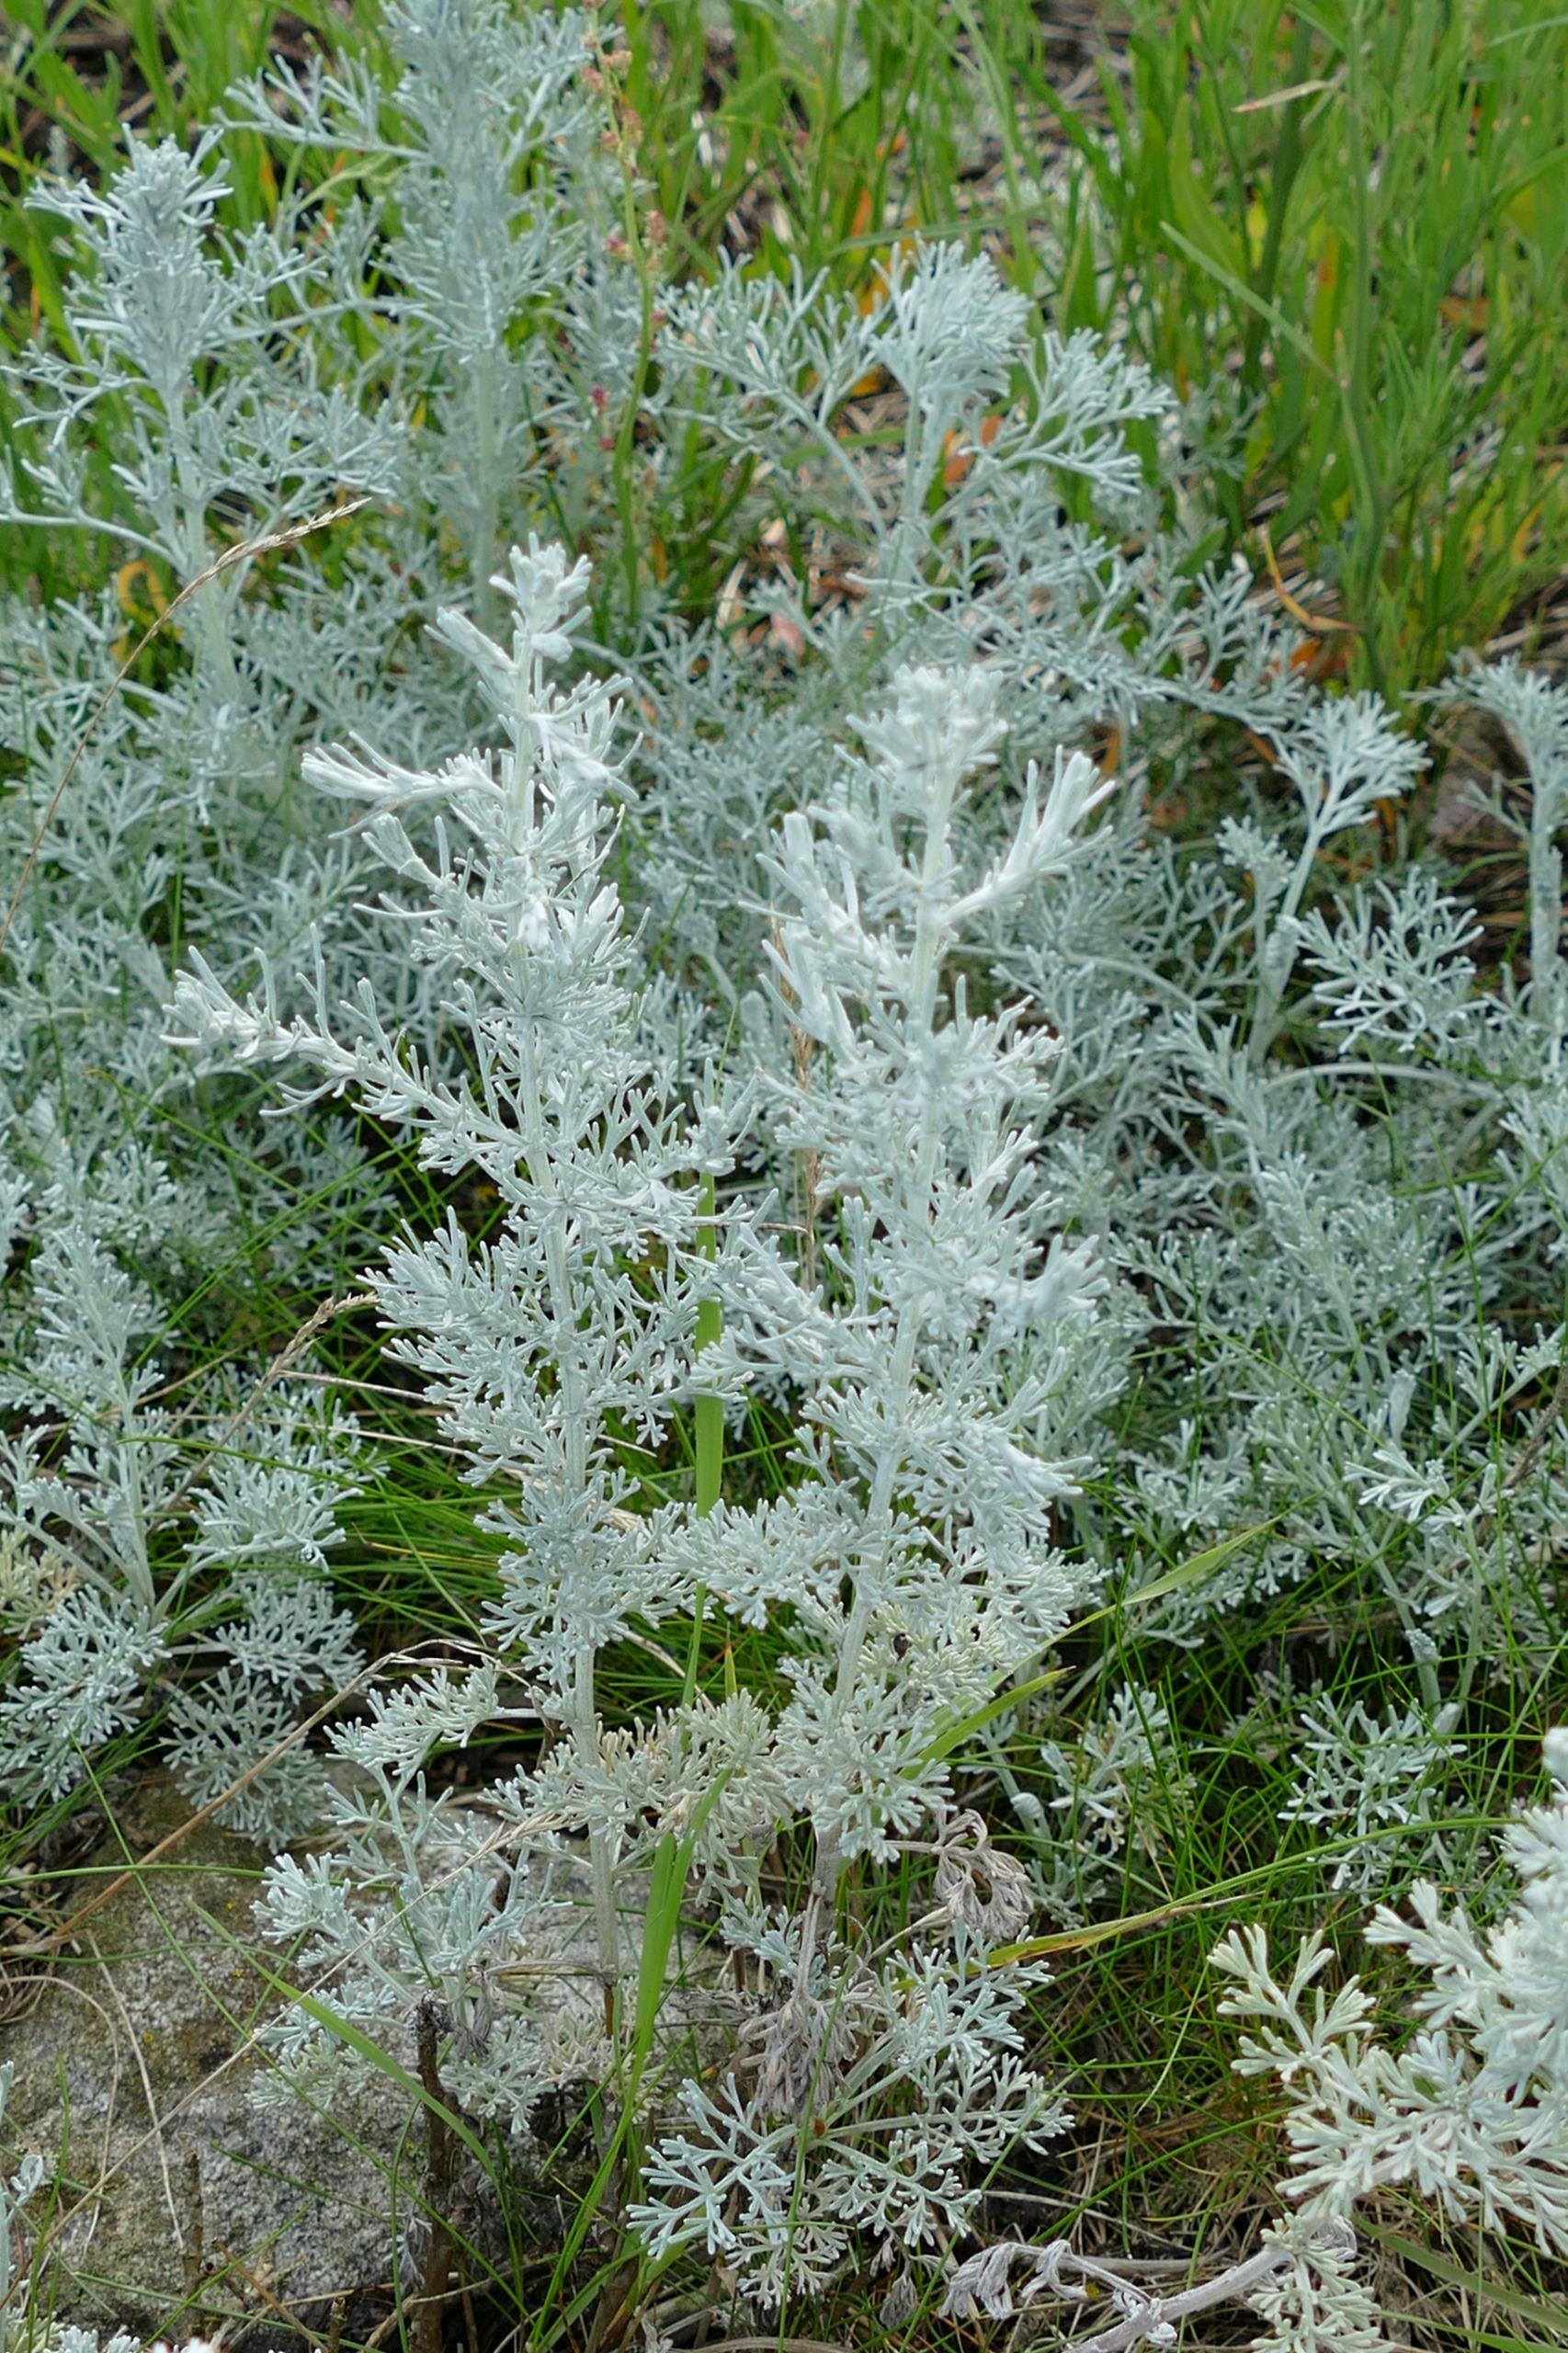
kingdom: Plantae
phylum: Tracheophyta
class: Magnoliopsida
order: Asterales
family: Asteraceae
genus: Artemisia
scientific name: Artemisia maritima
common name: Strandmalurt
